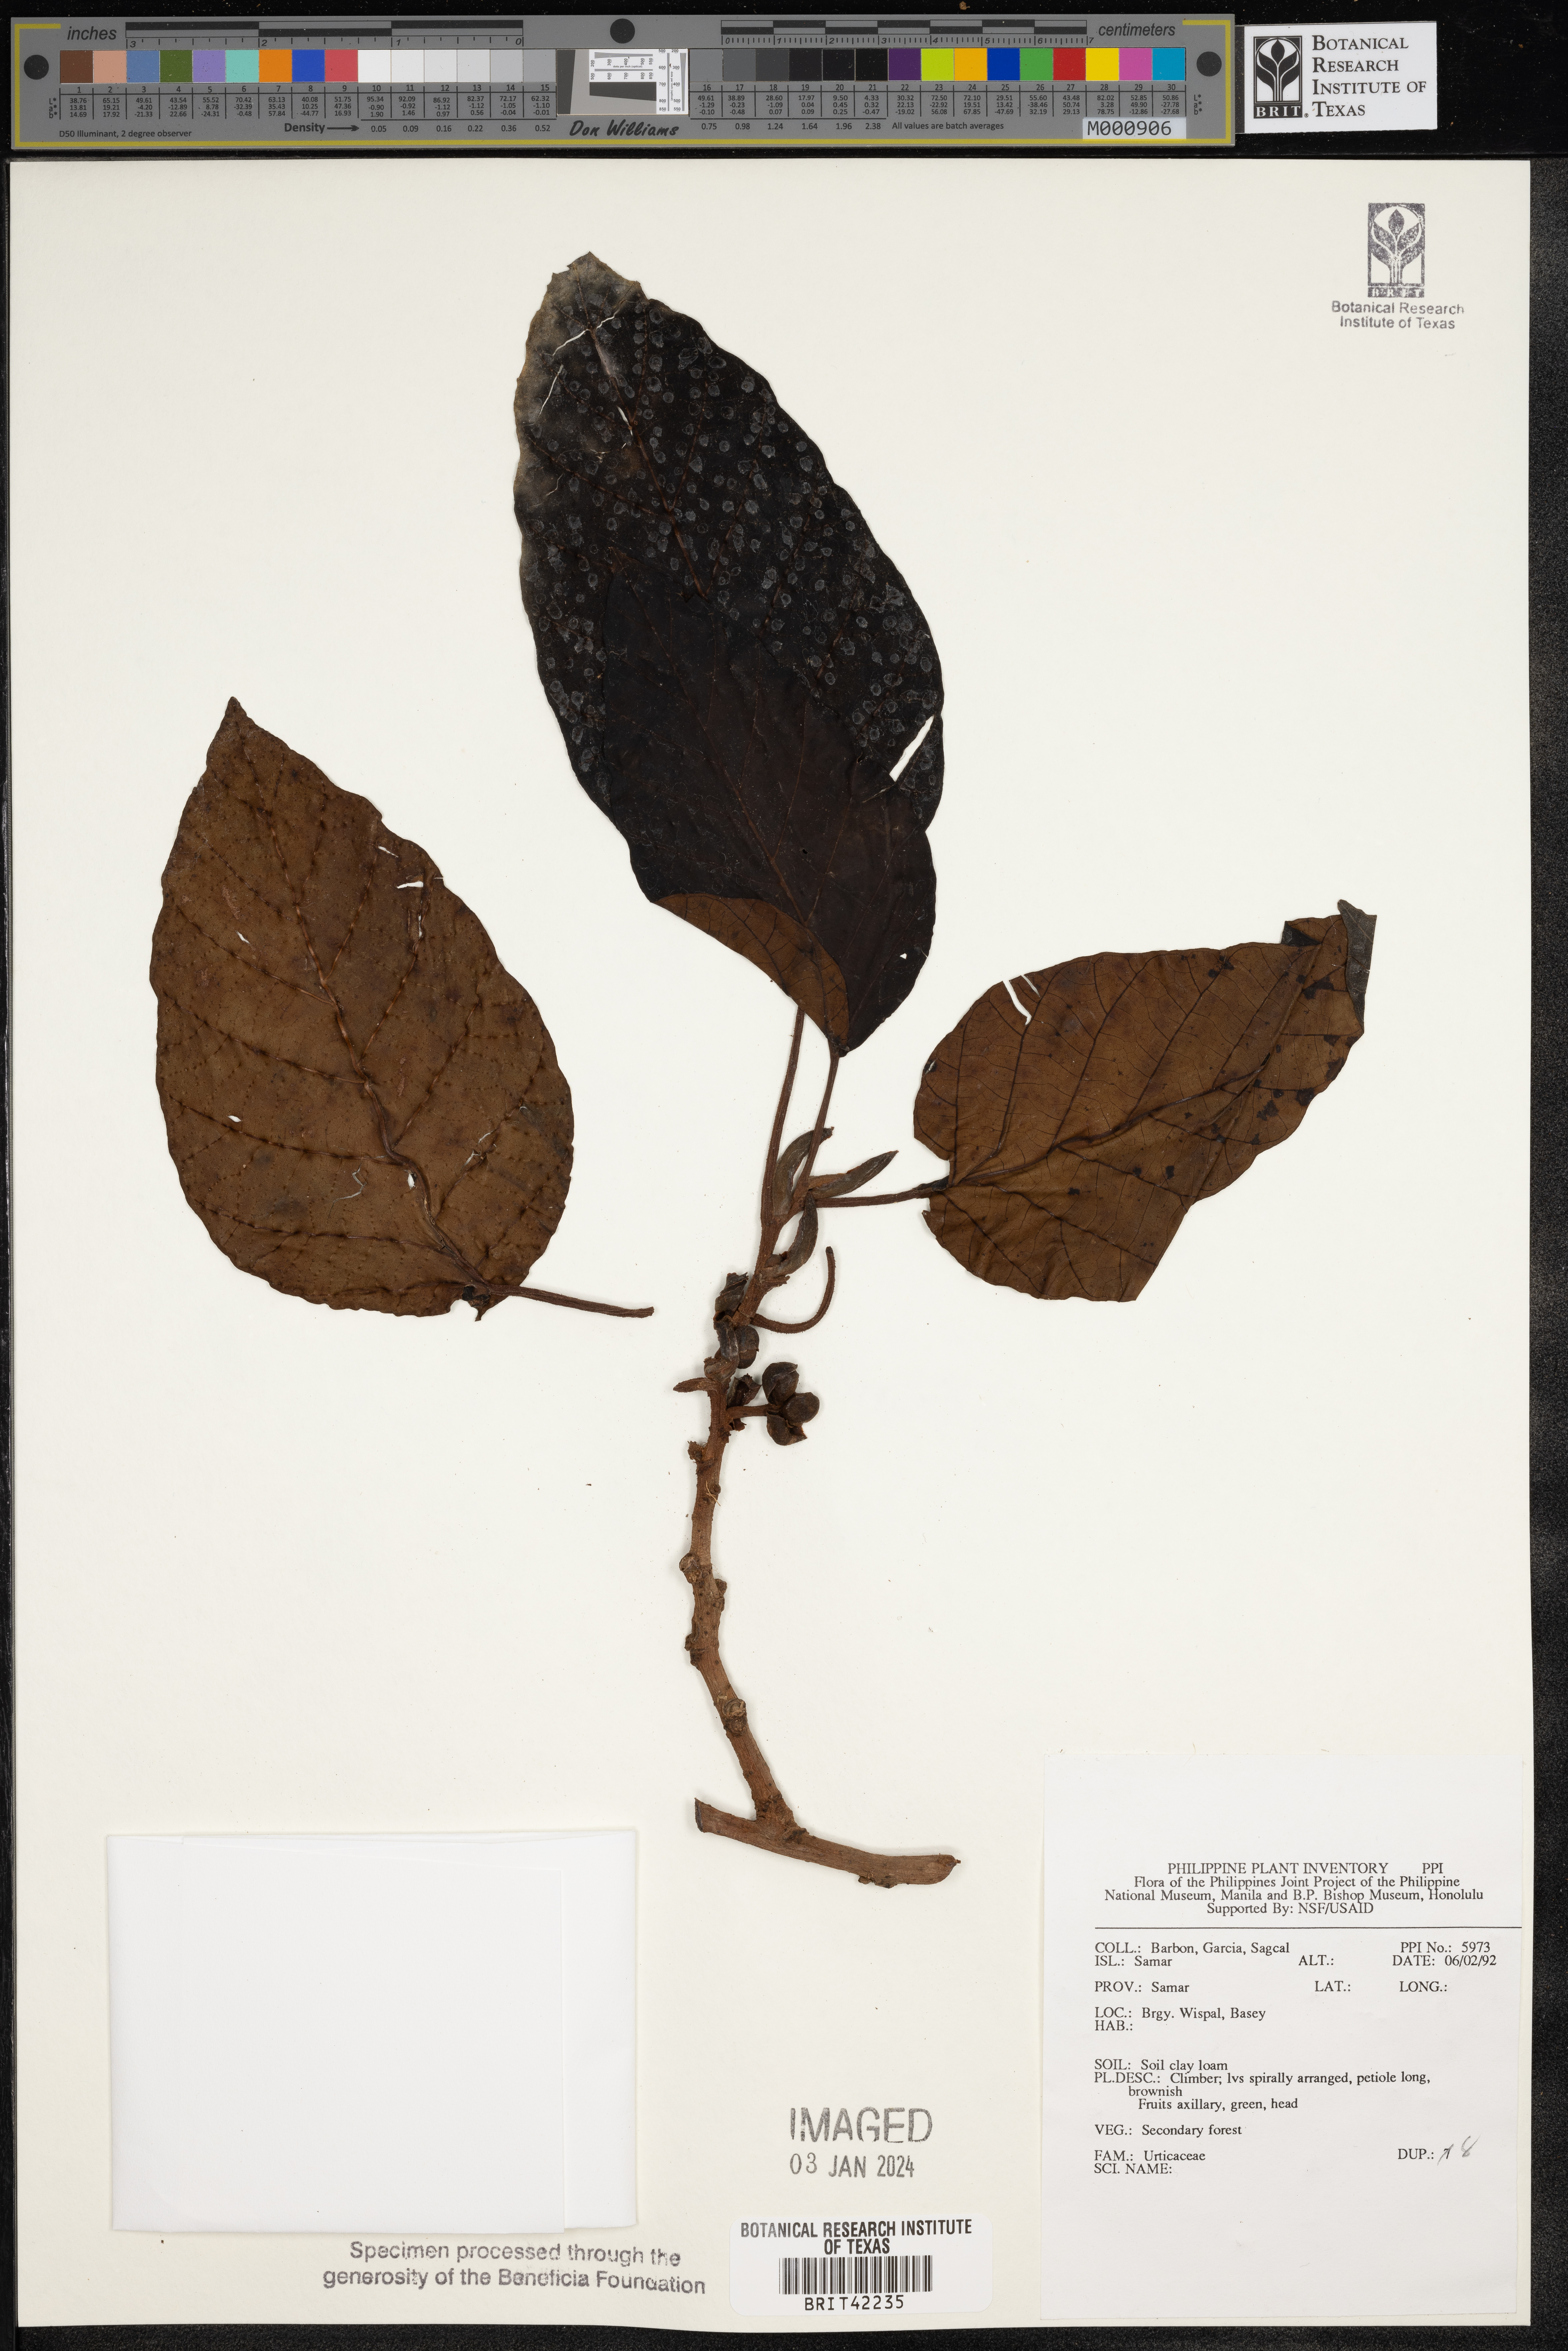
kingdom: Plantae
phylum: Tracheophyta
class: Magnoliopsida
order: Rosales
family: Urticaceae
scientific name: Urticaceae
